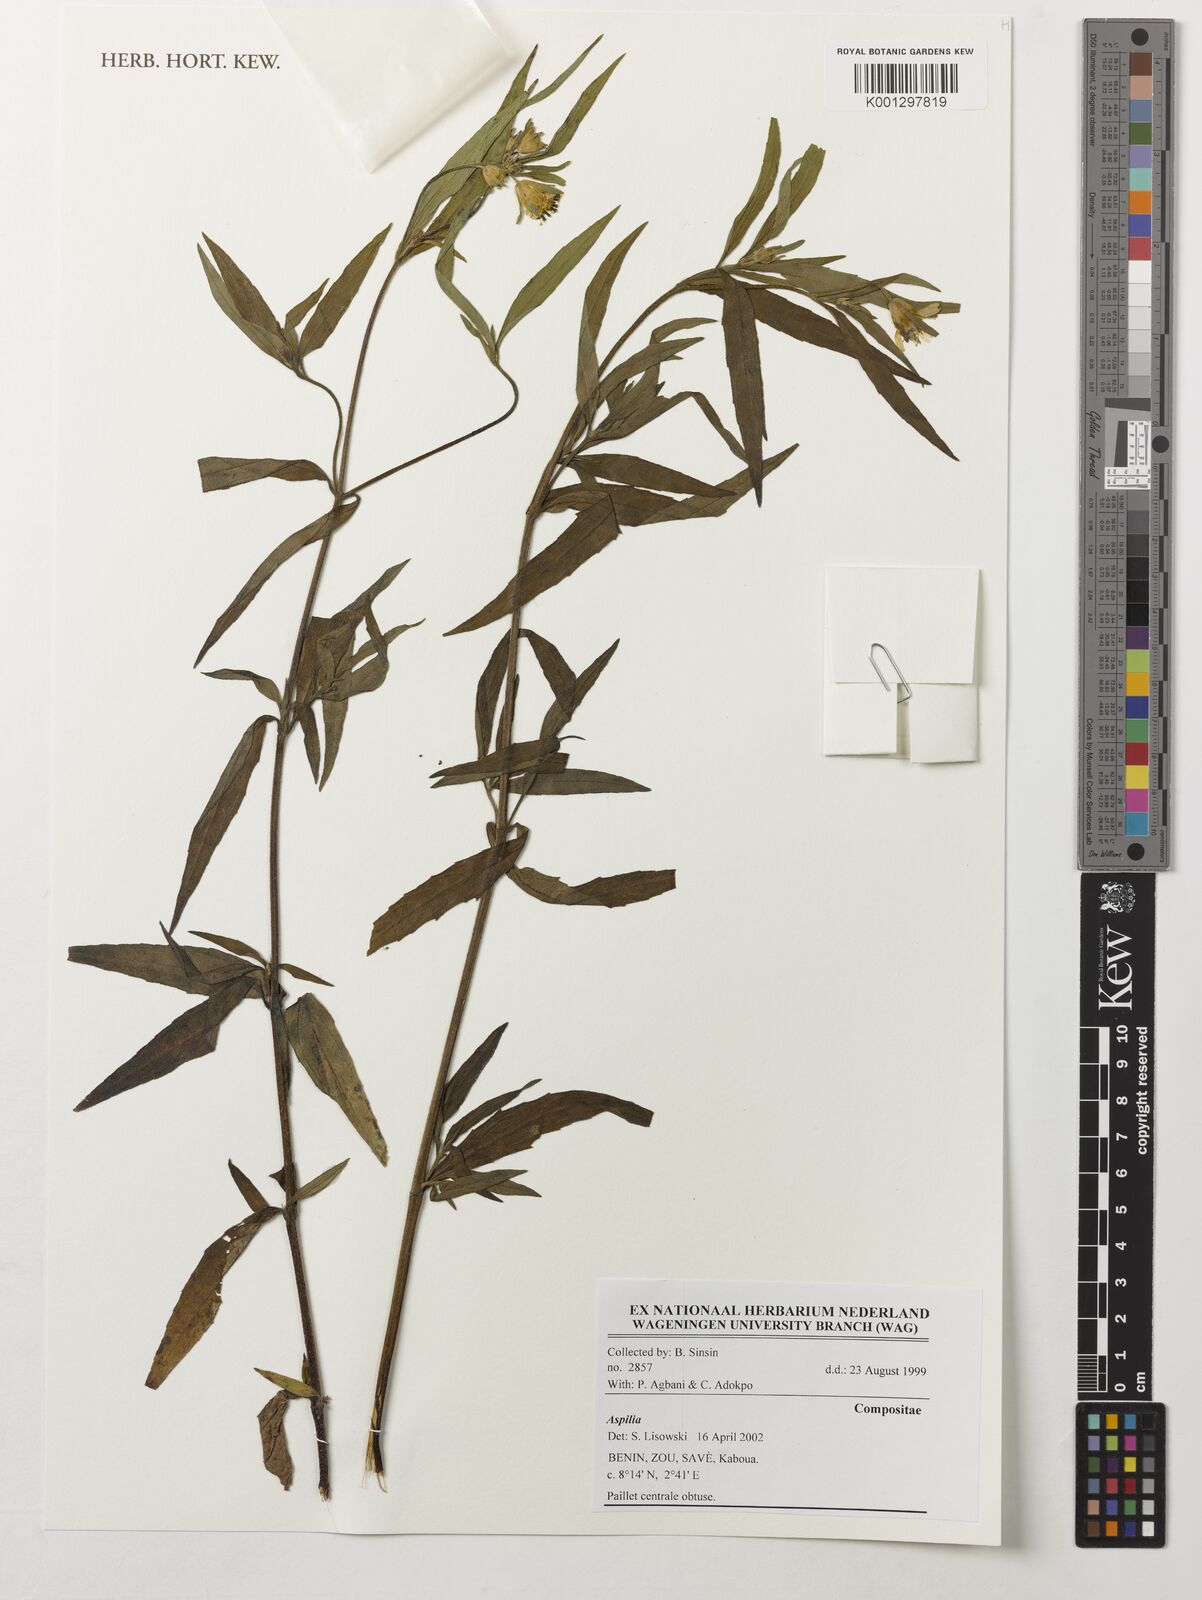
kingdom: Plantae
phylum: Tracheophyta
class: Magnoliopsida
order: Asterales
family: Asteraceae
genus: Aspilia
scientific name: Aspilia
